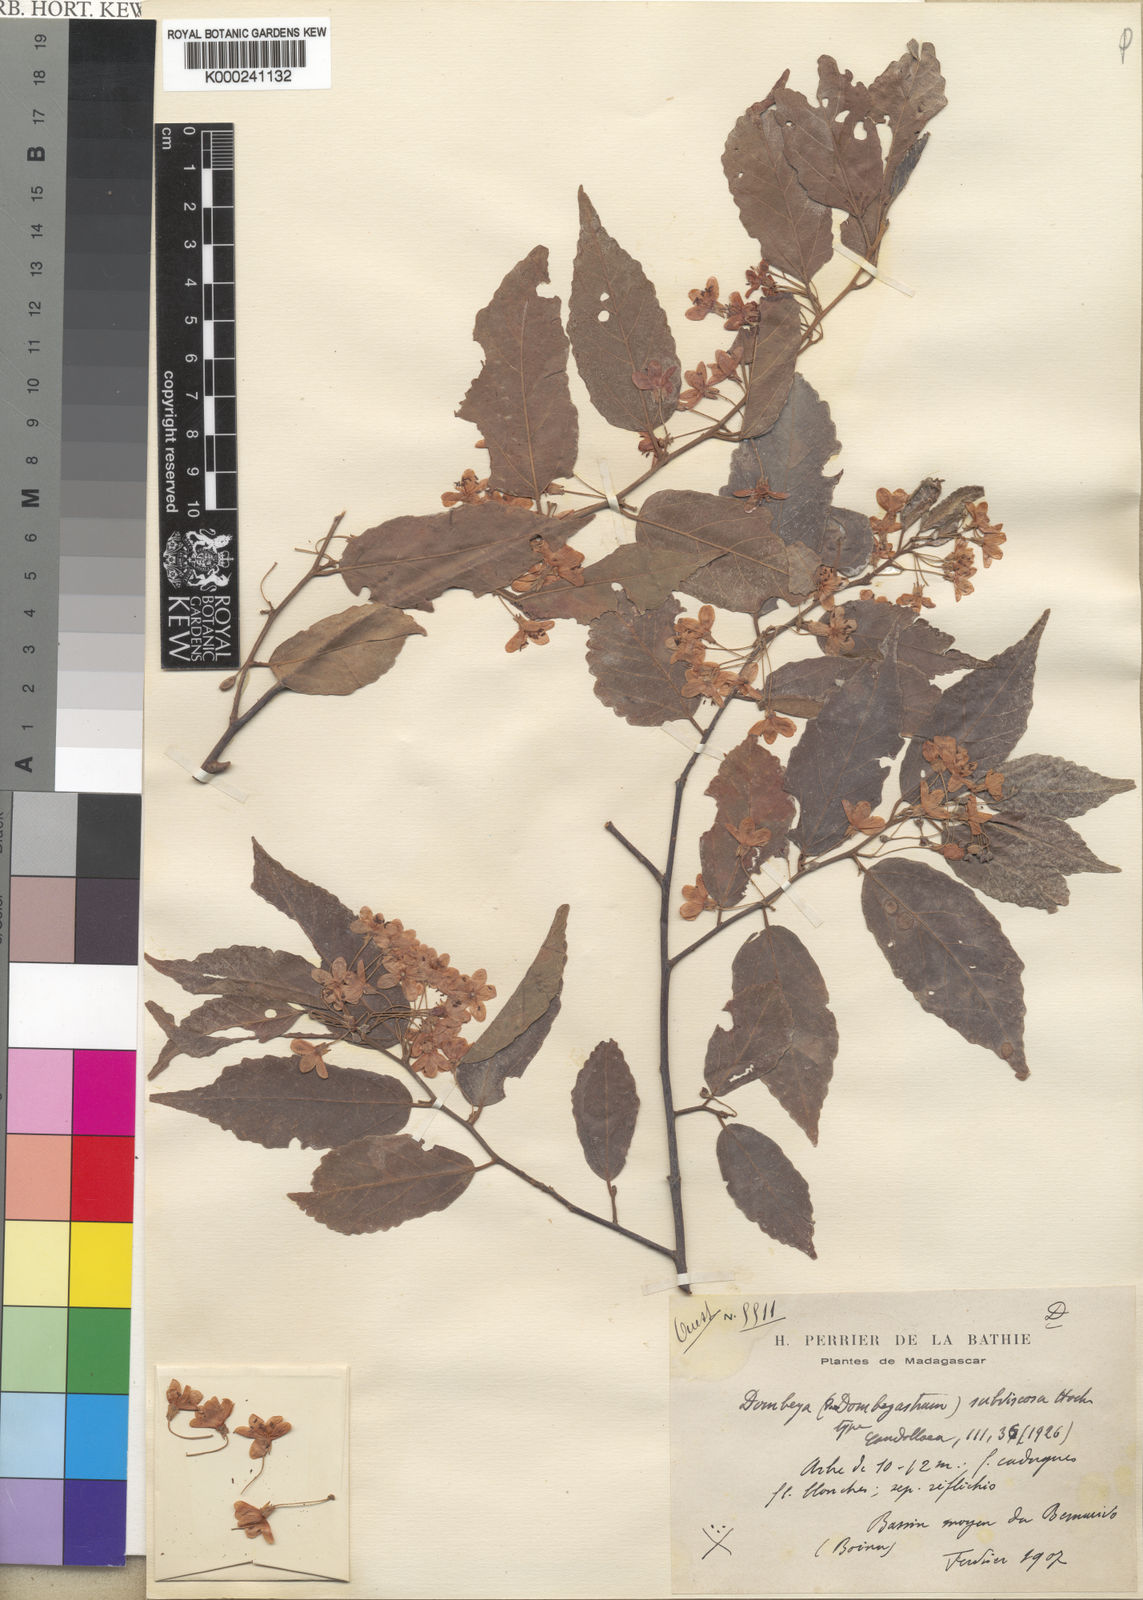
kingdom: Plantae
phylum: Tracheophyta
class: Magnoliopsida
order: Malvales
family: Malvaceae
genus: Dombeya
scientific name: Dombeya subviscosa
